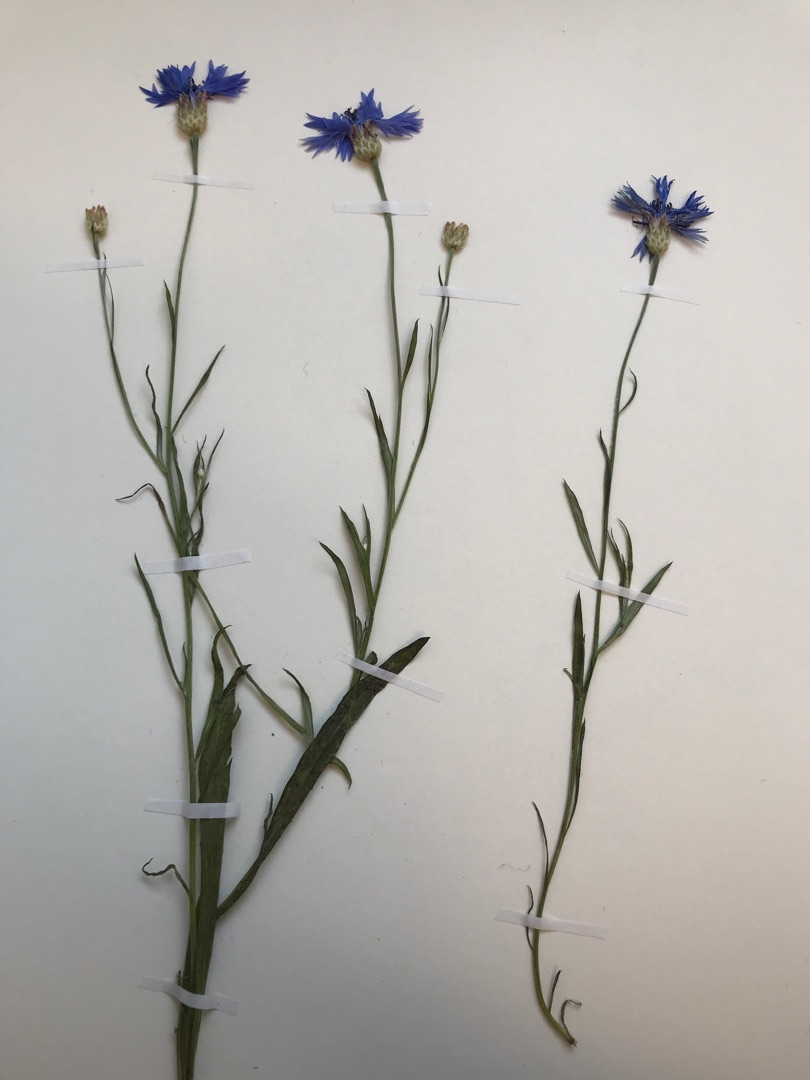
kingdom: Plantae
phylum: Tracheophyta
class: Magnoliopsida
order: Asterales
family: Asteraceae
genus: Centaurea
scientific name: Centaurea cyanus
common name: Kornblomst
